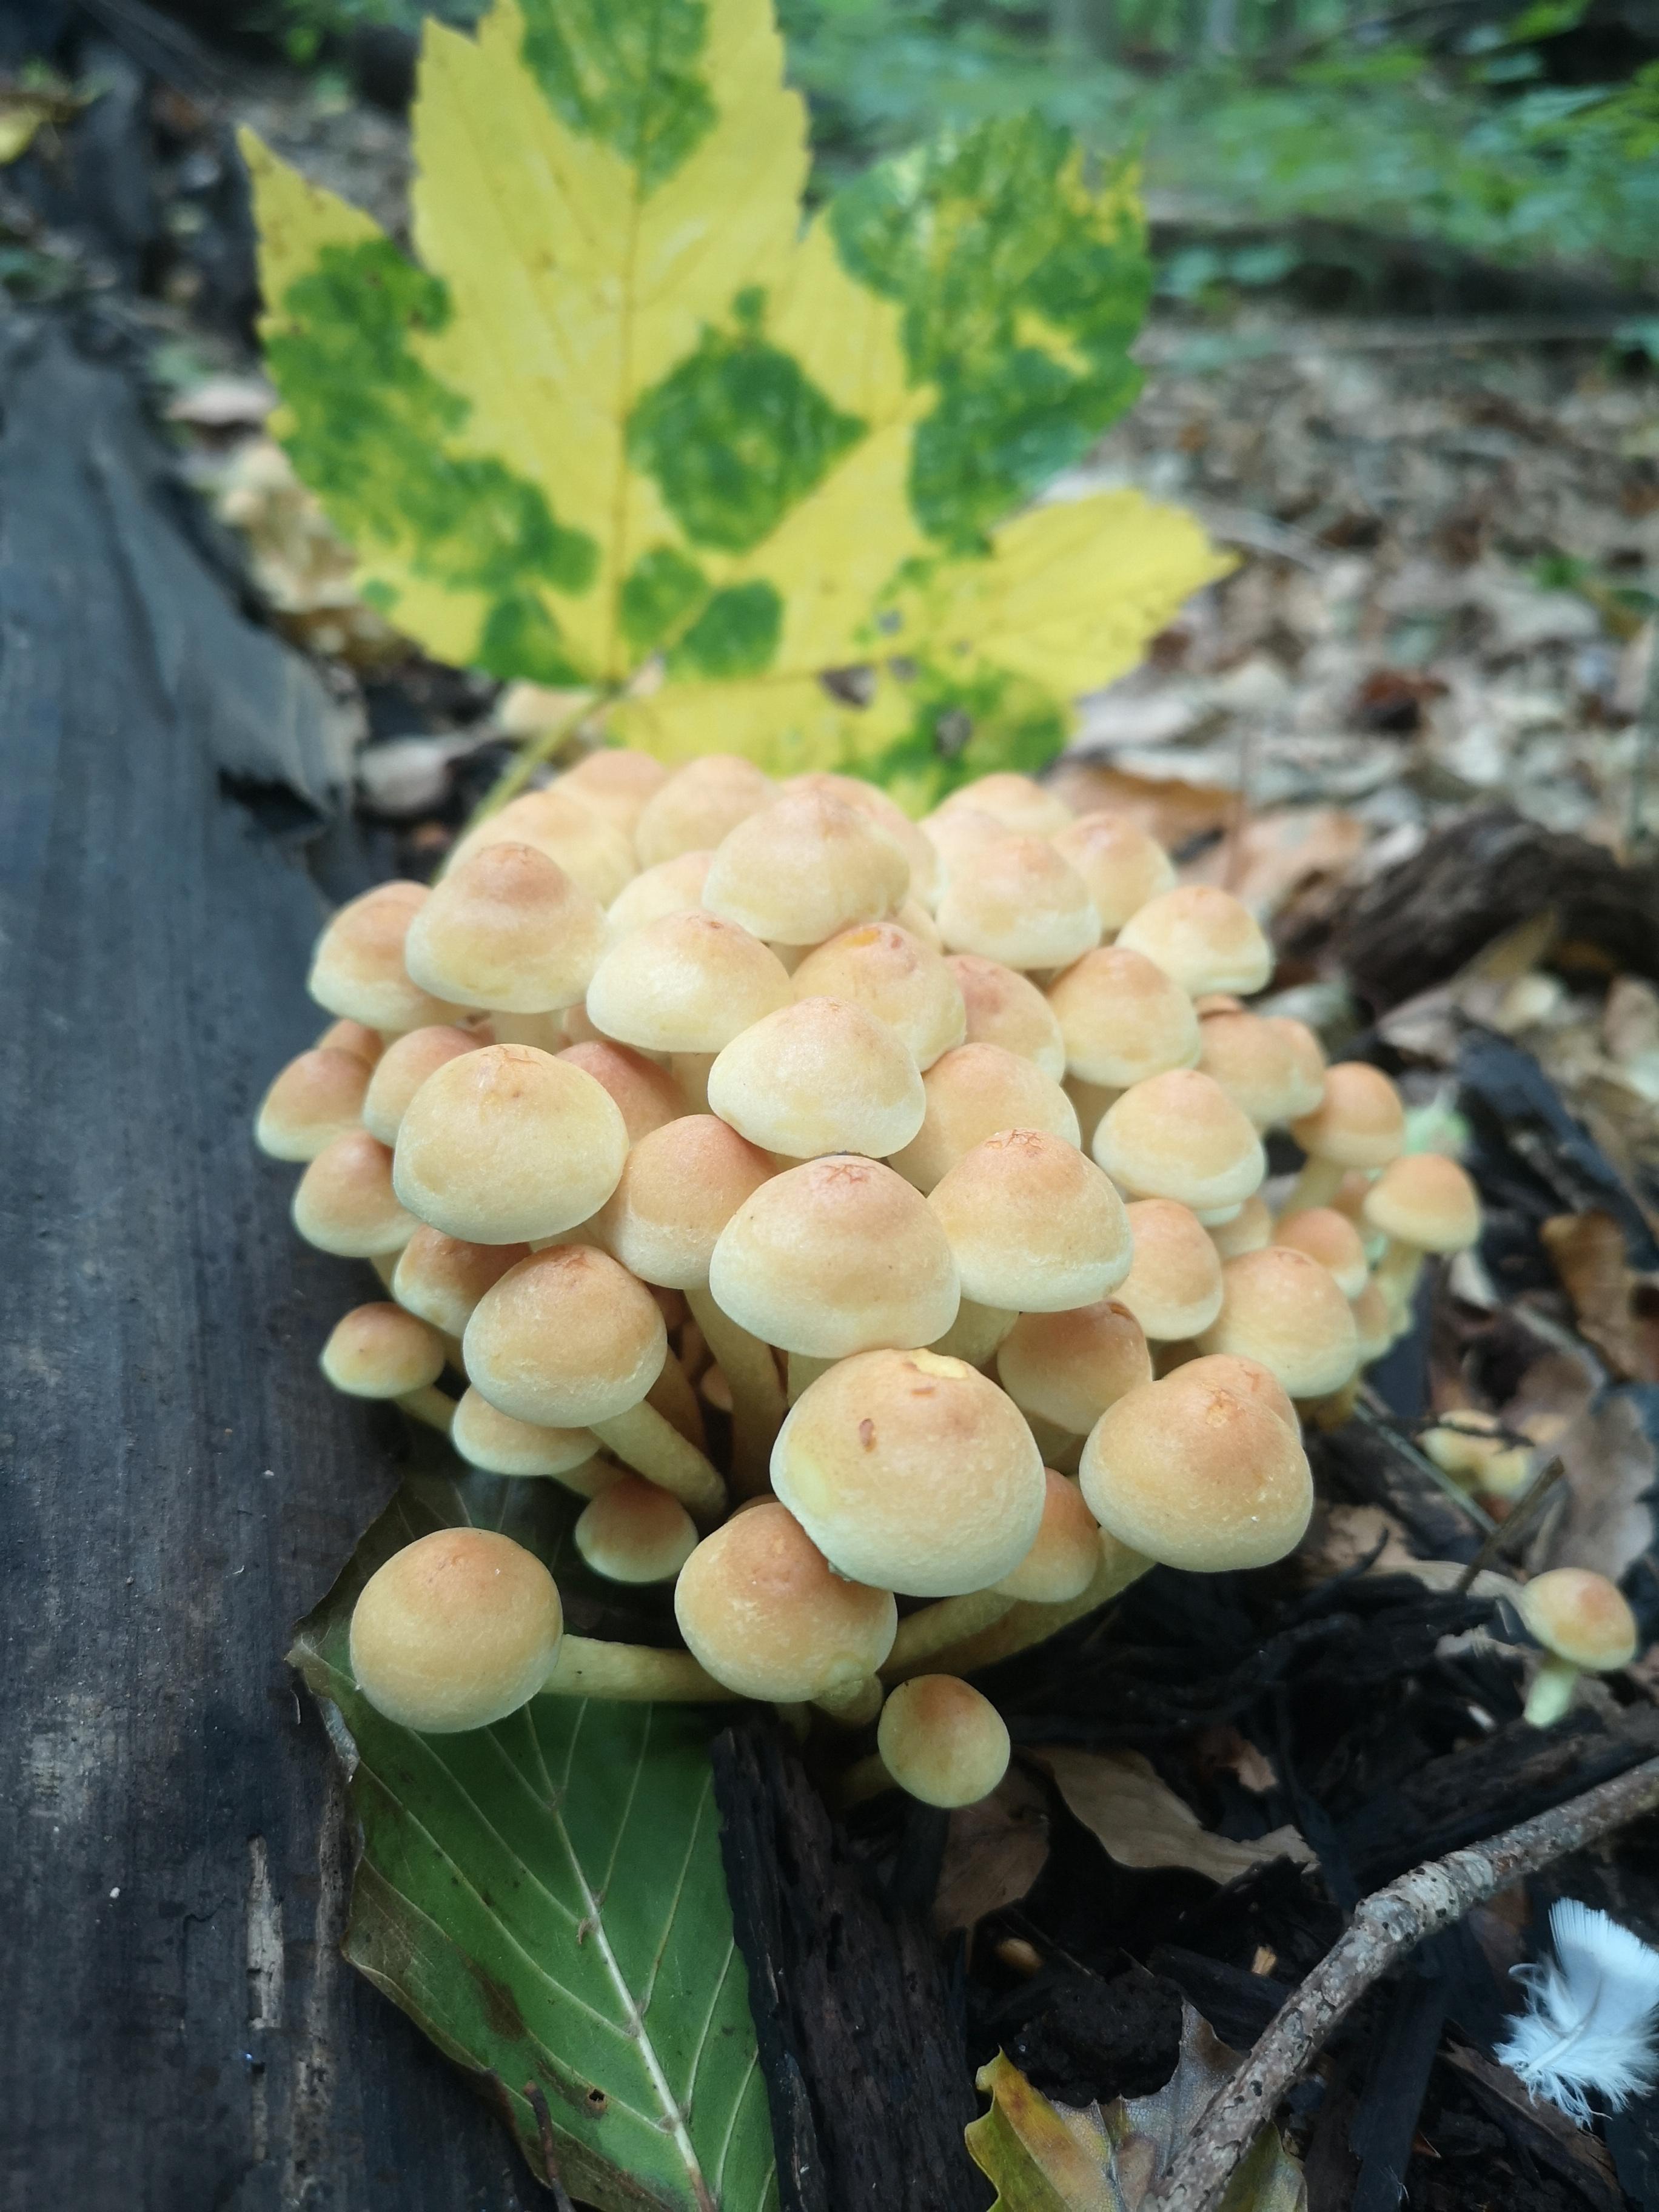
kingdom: Fungi
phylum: Basidiomycota
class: Agaricomycetes
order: Agaricales
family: Strophariaceae
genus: Hypholoma
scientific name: Hypholoma fasciculare
